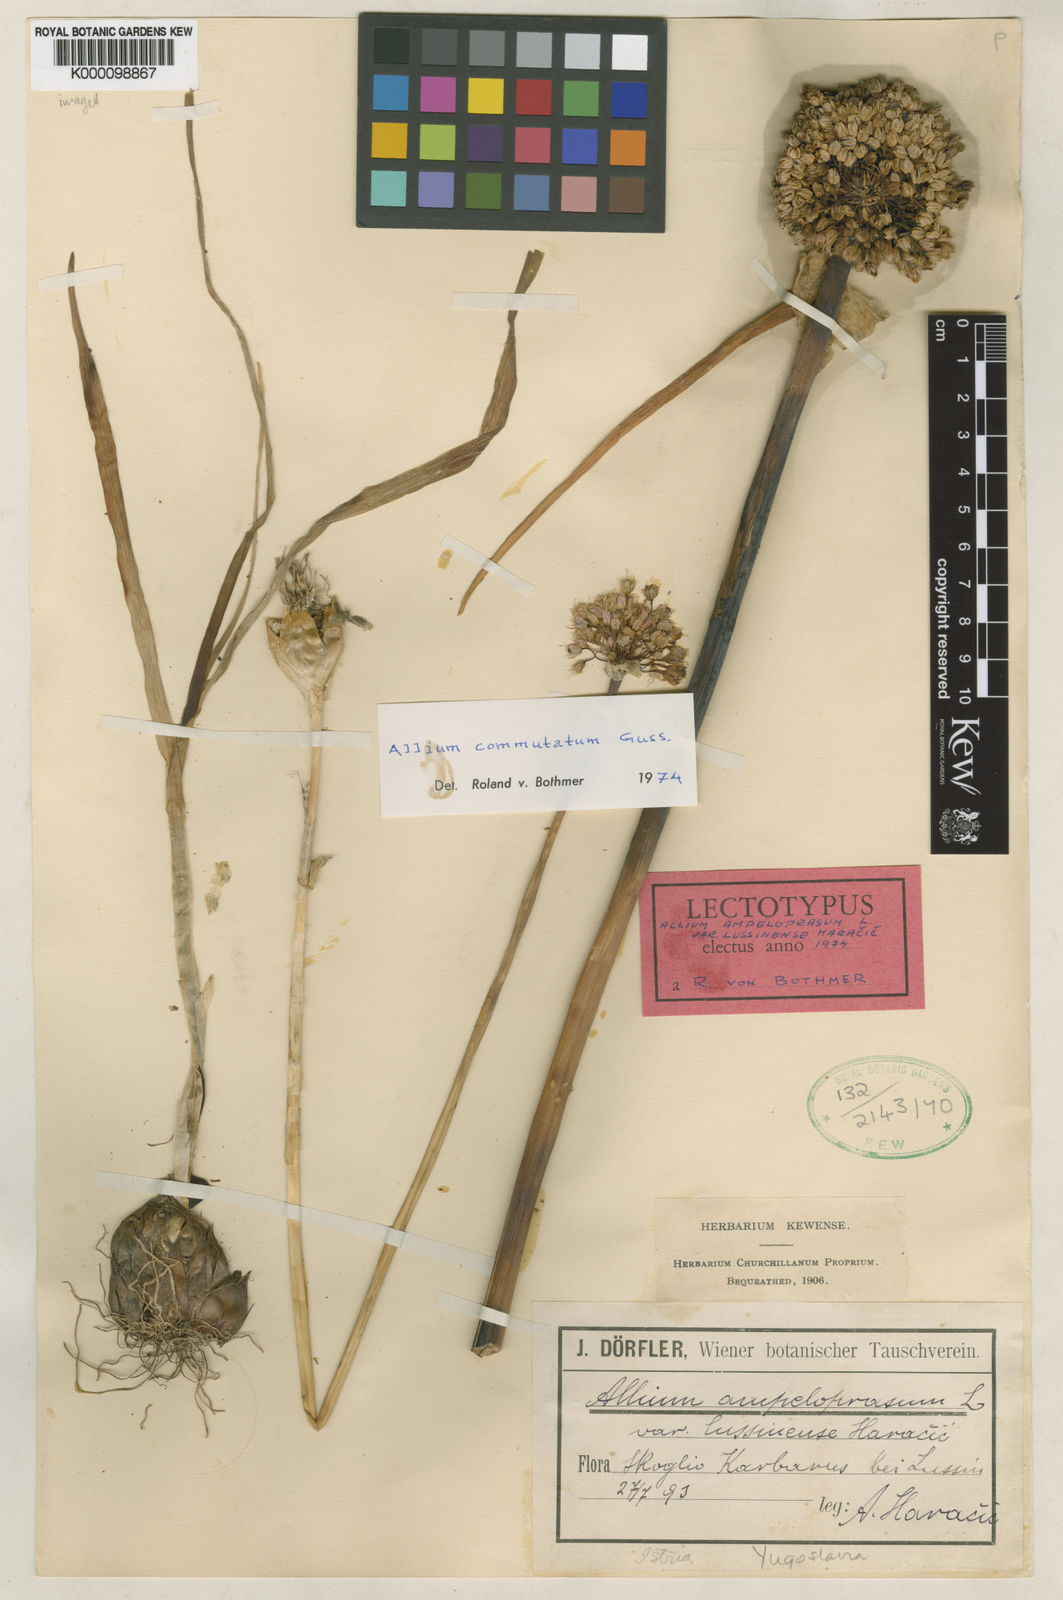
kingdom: Plantae
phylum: Tracheophyta
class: Liliopsida
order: Asparagales
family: Amaryllidaceae
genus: Allium
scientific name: Allium commutatum
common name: Sea garlic
